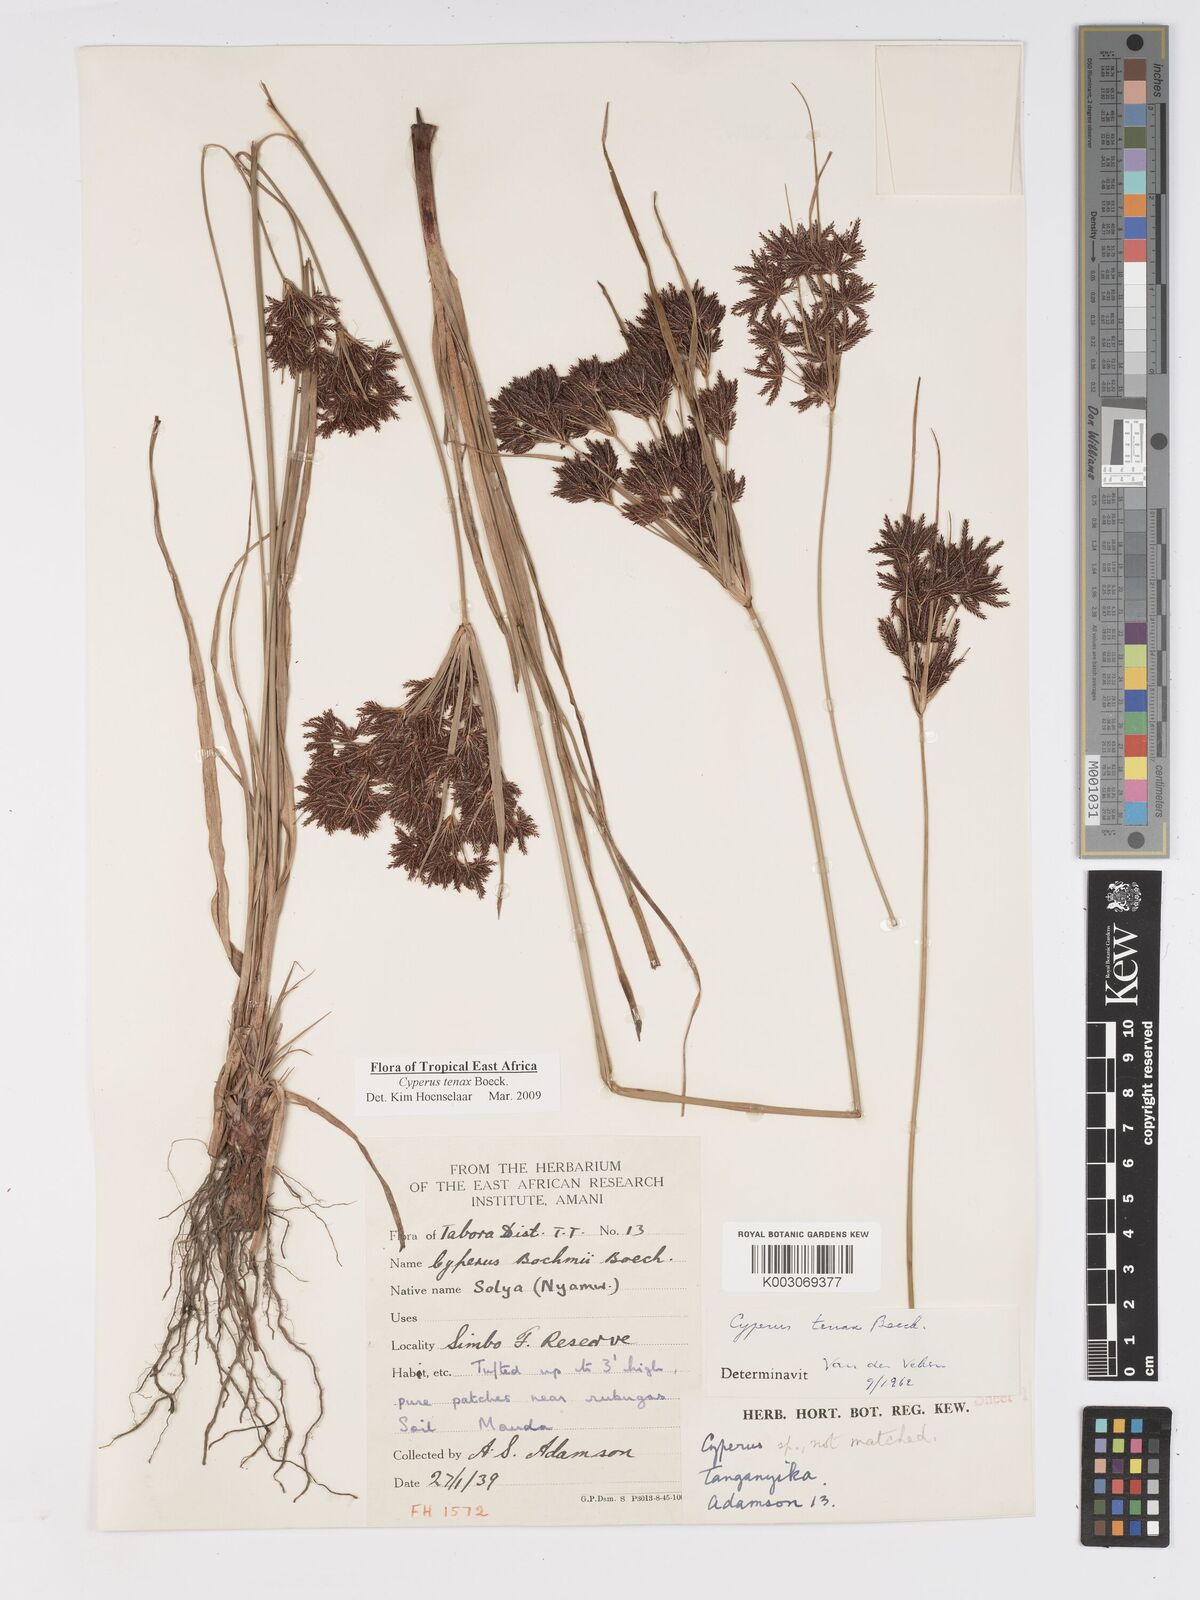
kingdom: Plantae
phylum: Tracheophyta
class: Liliopsida
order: Poales
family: Cyperaceae
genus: Cyperus
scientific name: Cyperus tenax
